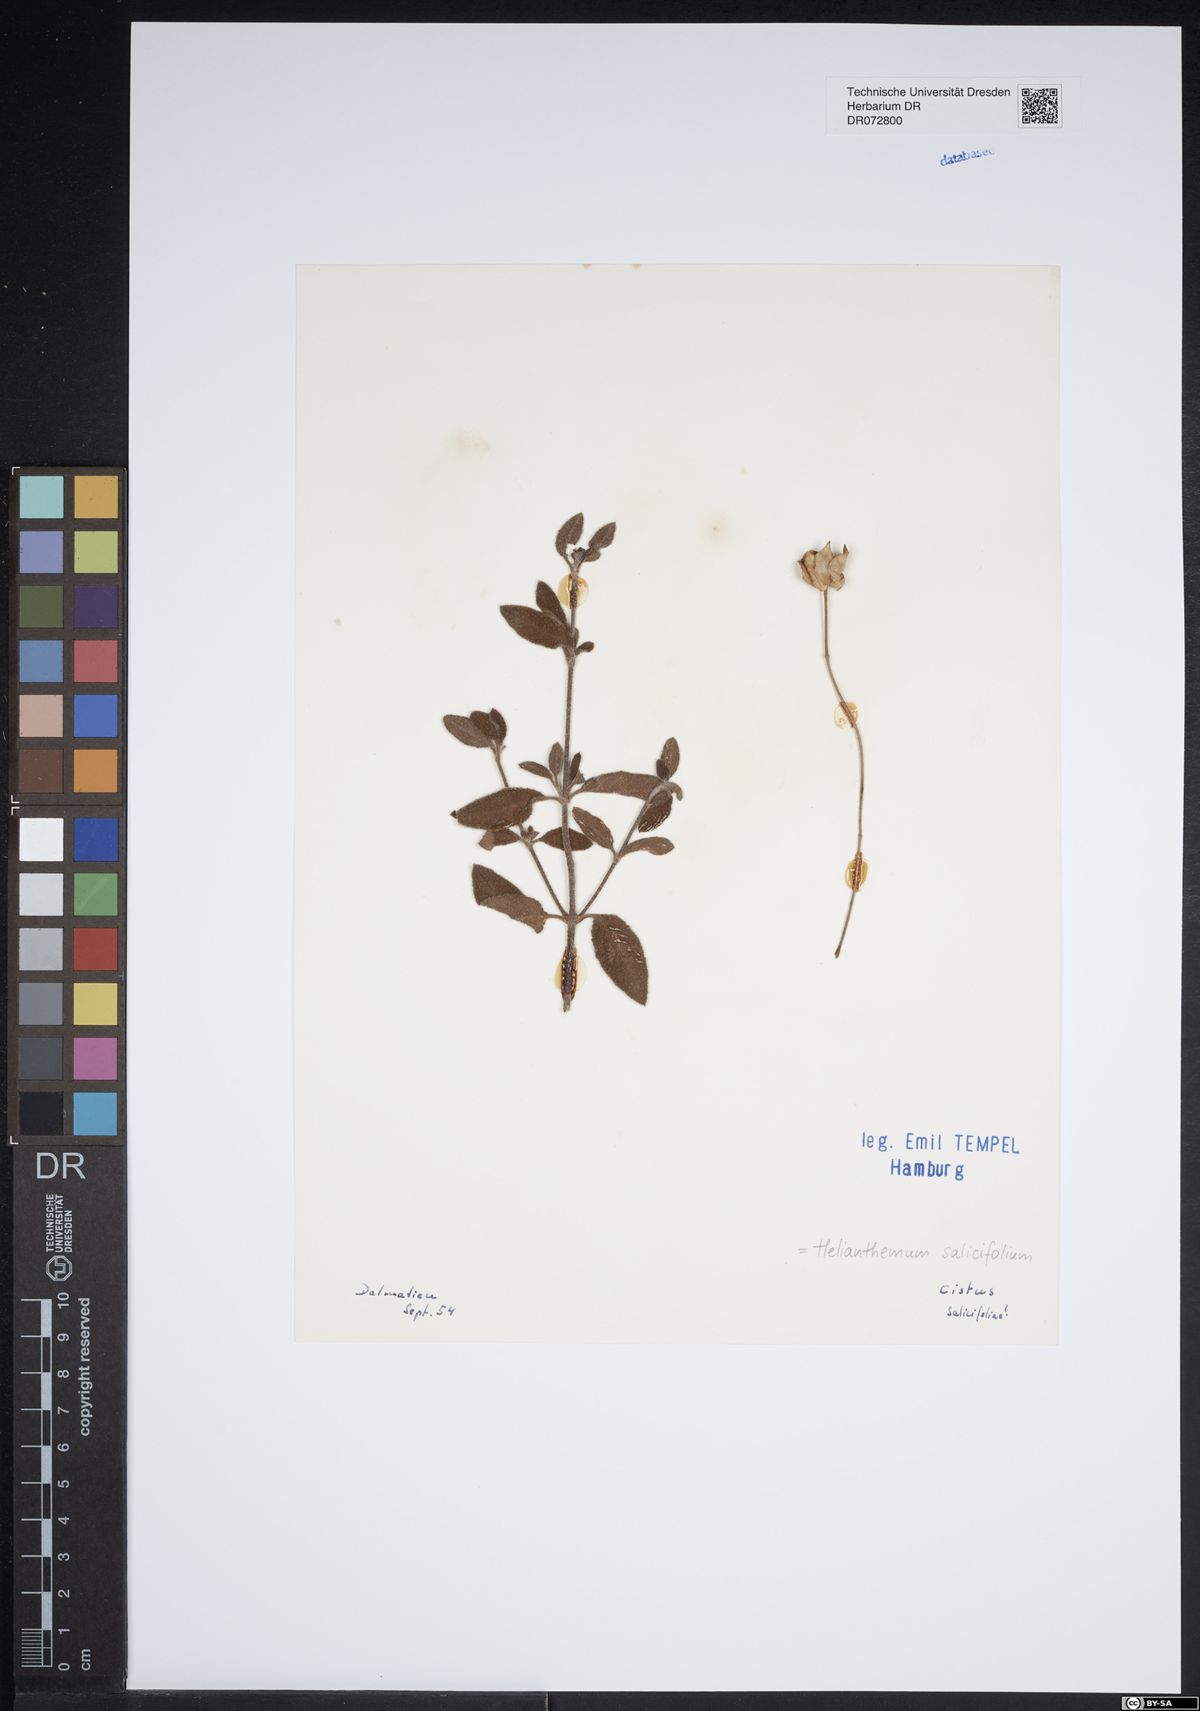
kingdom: Plantae
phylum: Tracheophyta
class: Magnoliopsida
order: Malvales
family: Cistaceae
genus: Helianthemum
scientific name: Helianthemum salicifolium
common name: Willowleaf frostweed
